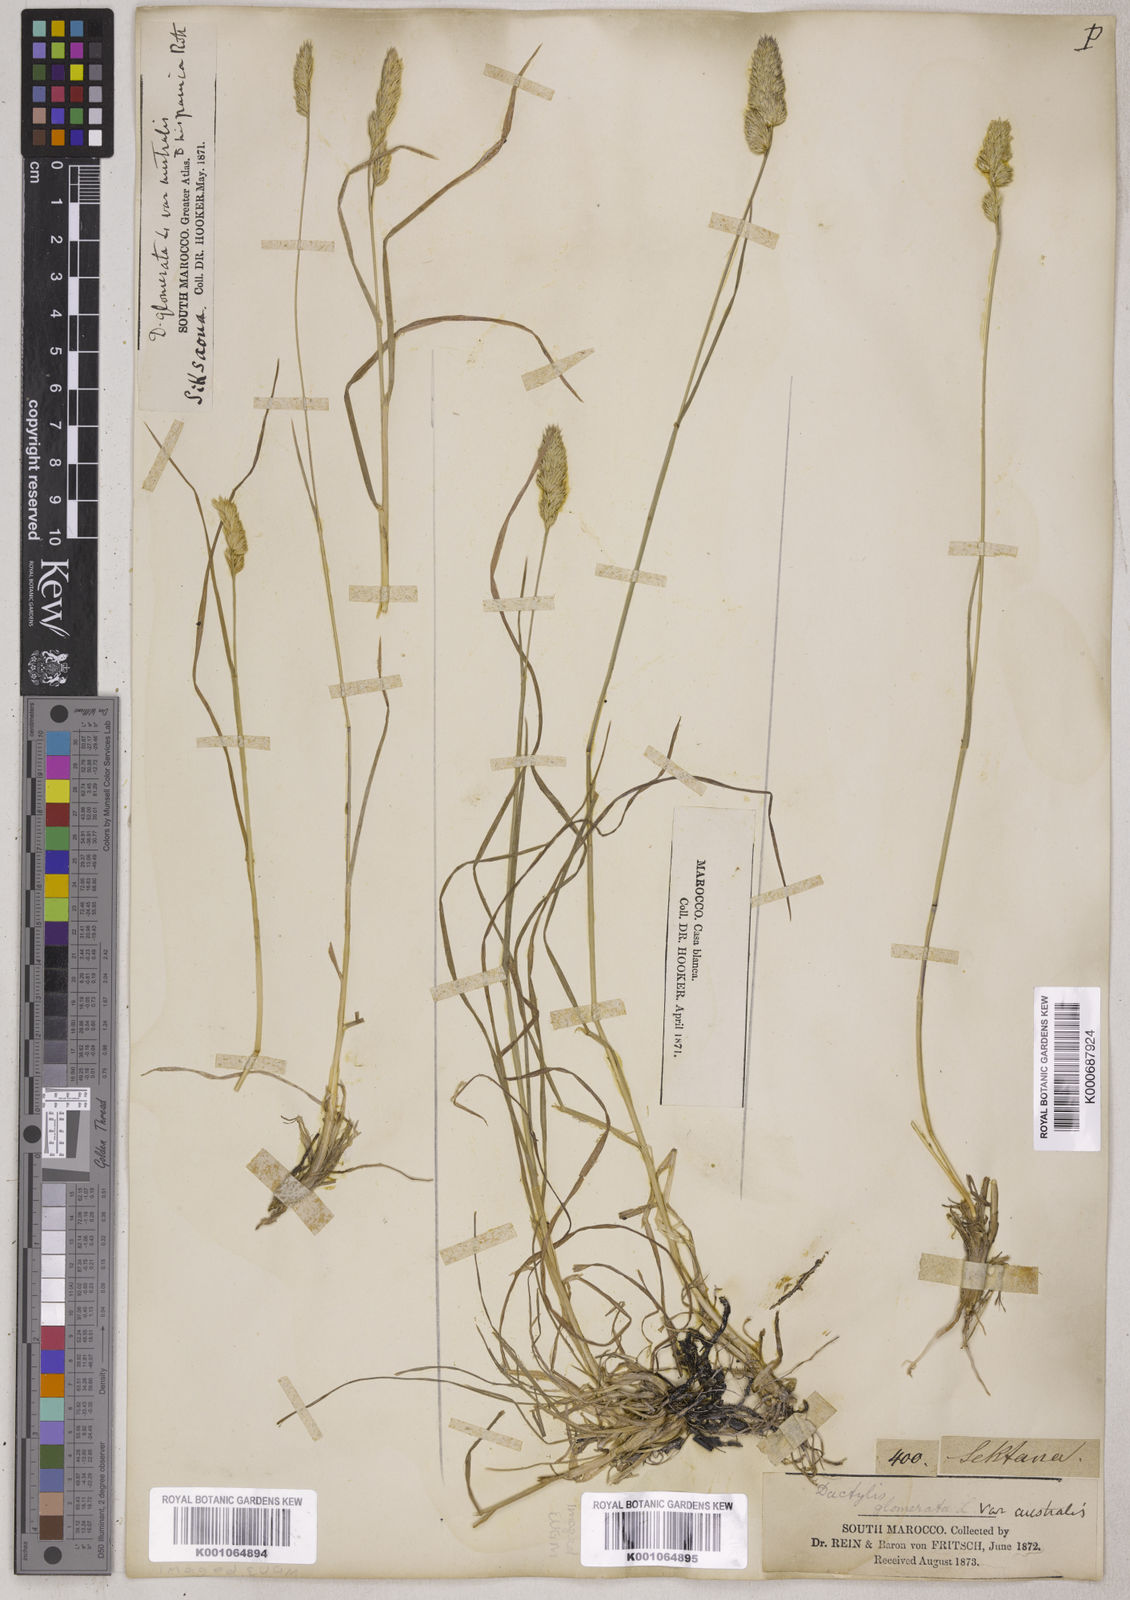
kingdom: Plantae
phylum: Tracheophyta
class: Liliopsida
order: Poales
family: Poaceae
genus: Dactylis
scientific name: Dactylis glomerata
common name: Orchardgrass
